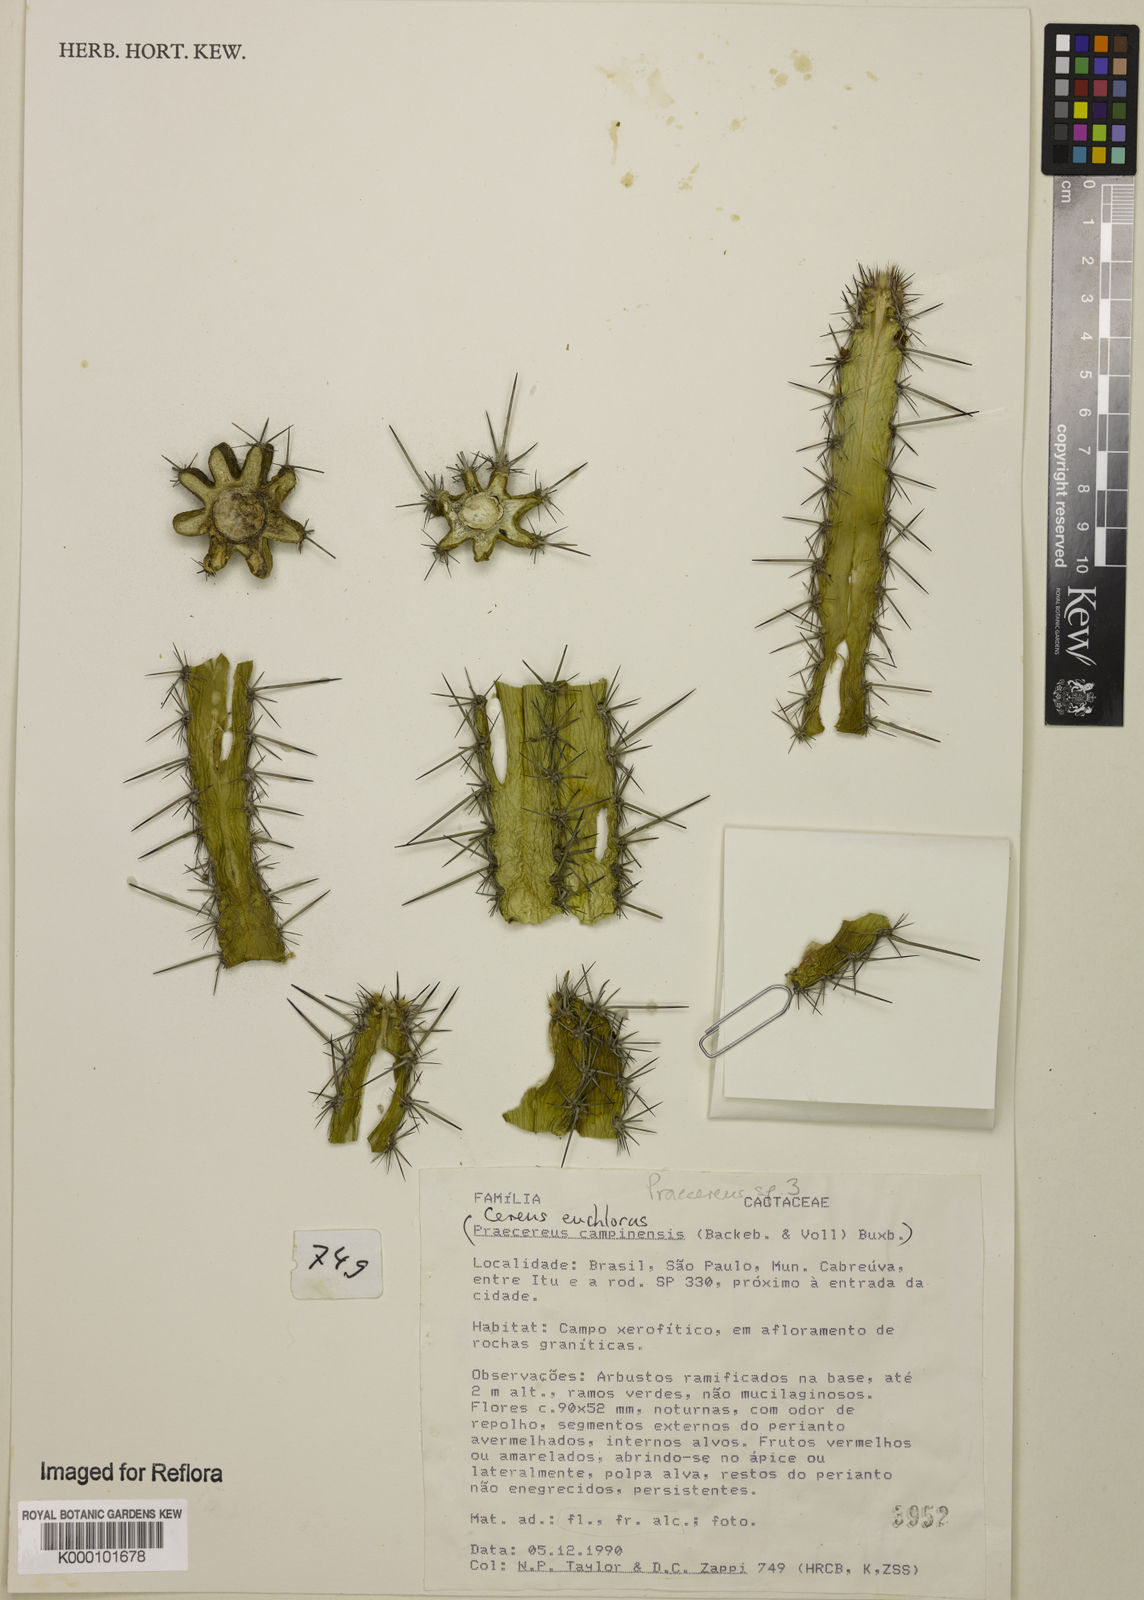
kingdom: Plantae
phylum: Tracheophyta
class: Magnoliopsida
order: Caryophyllales
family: Cactaceae
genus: Praecereus
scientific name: Praecereus euchlorus
